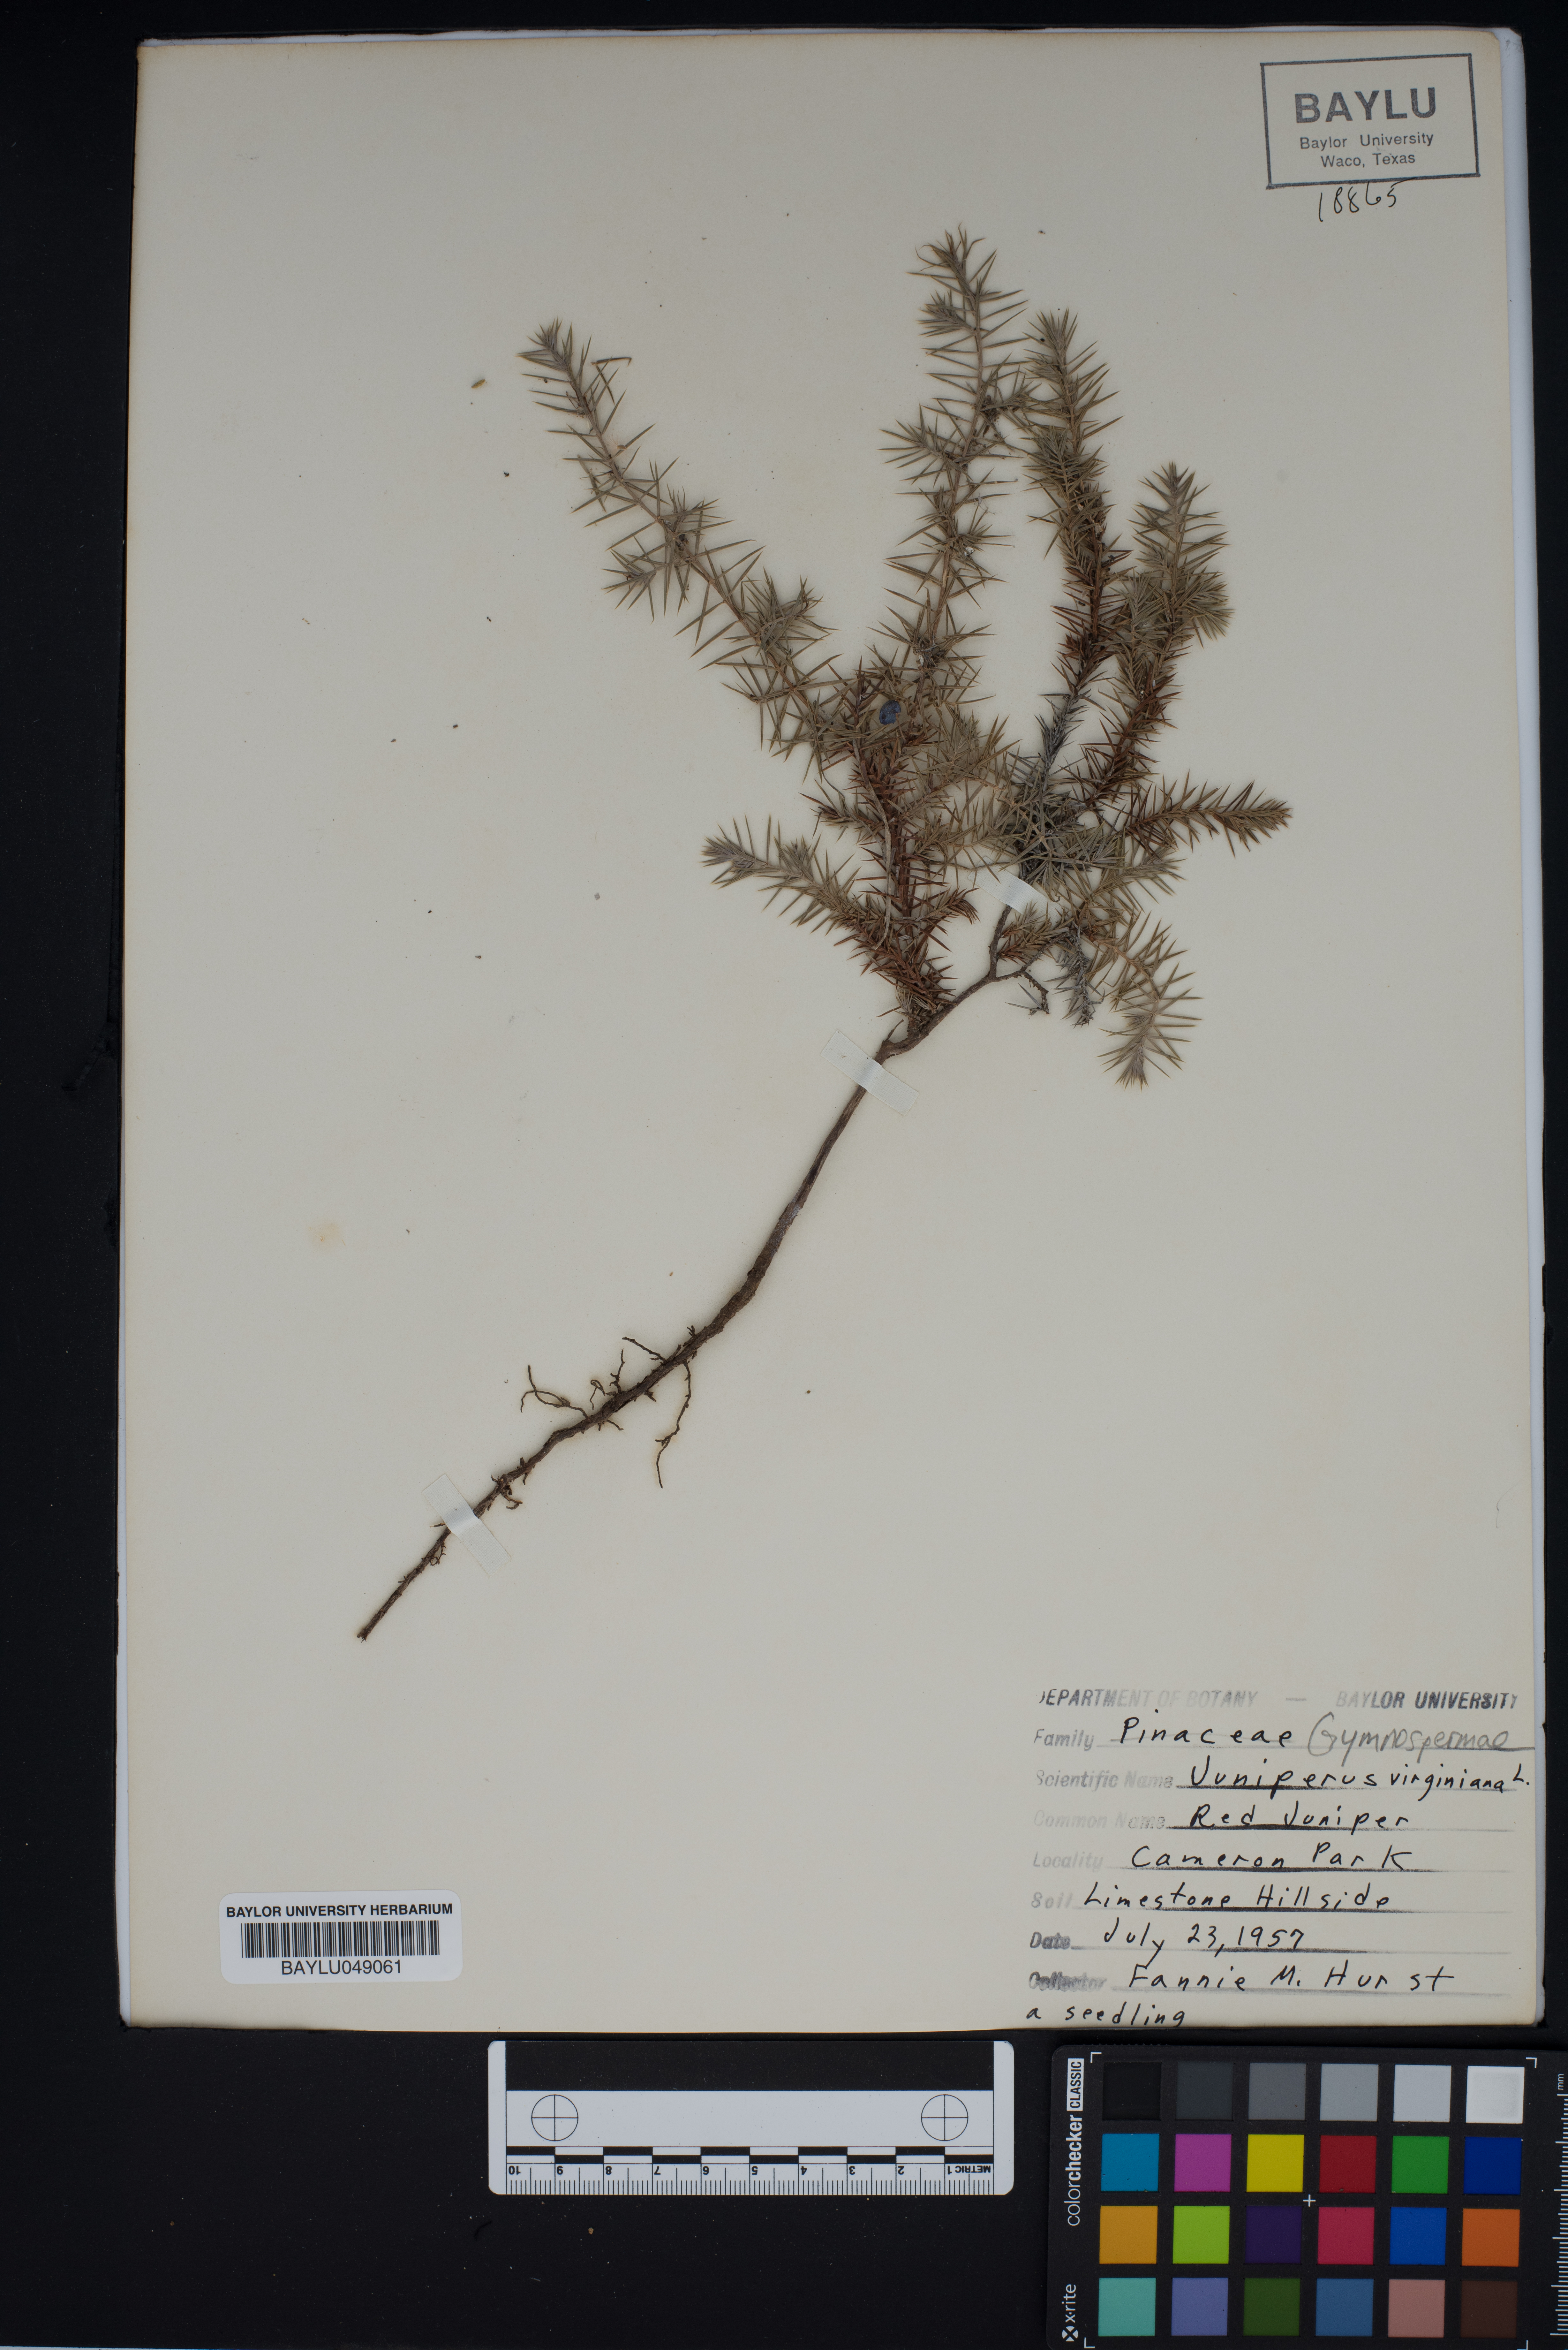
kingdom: Plantae
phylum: Tracheophyta
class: Pinopsida
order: Pinales
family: Cupressaceae
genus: Juniperus
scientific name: Juniperus virginiana
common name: Red juniper
